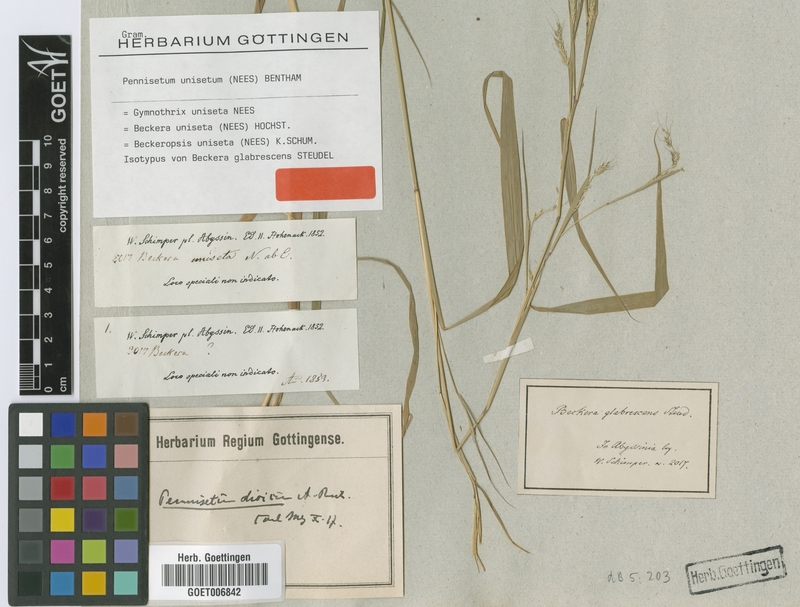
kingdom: Plantae
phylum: Tracheophyta
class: Liliopsida
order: Poales
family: Poaceae
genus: Cenchrus
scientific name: Cenchrus unisetus
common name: Natal grass
